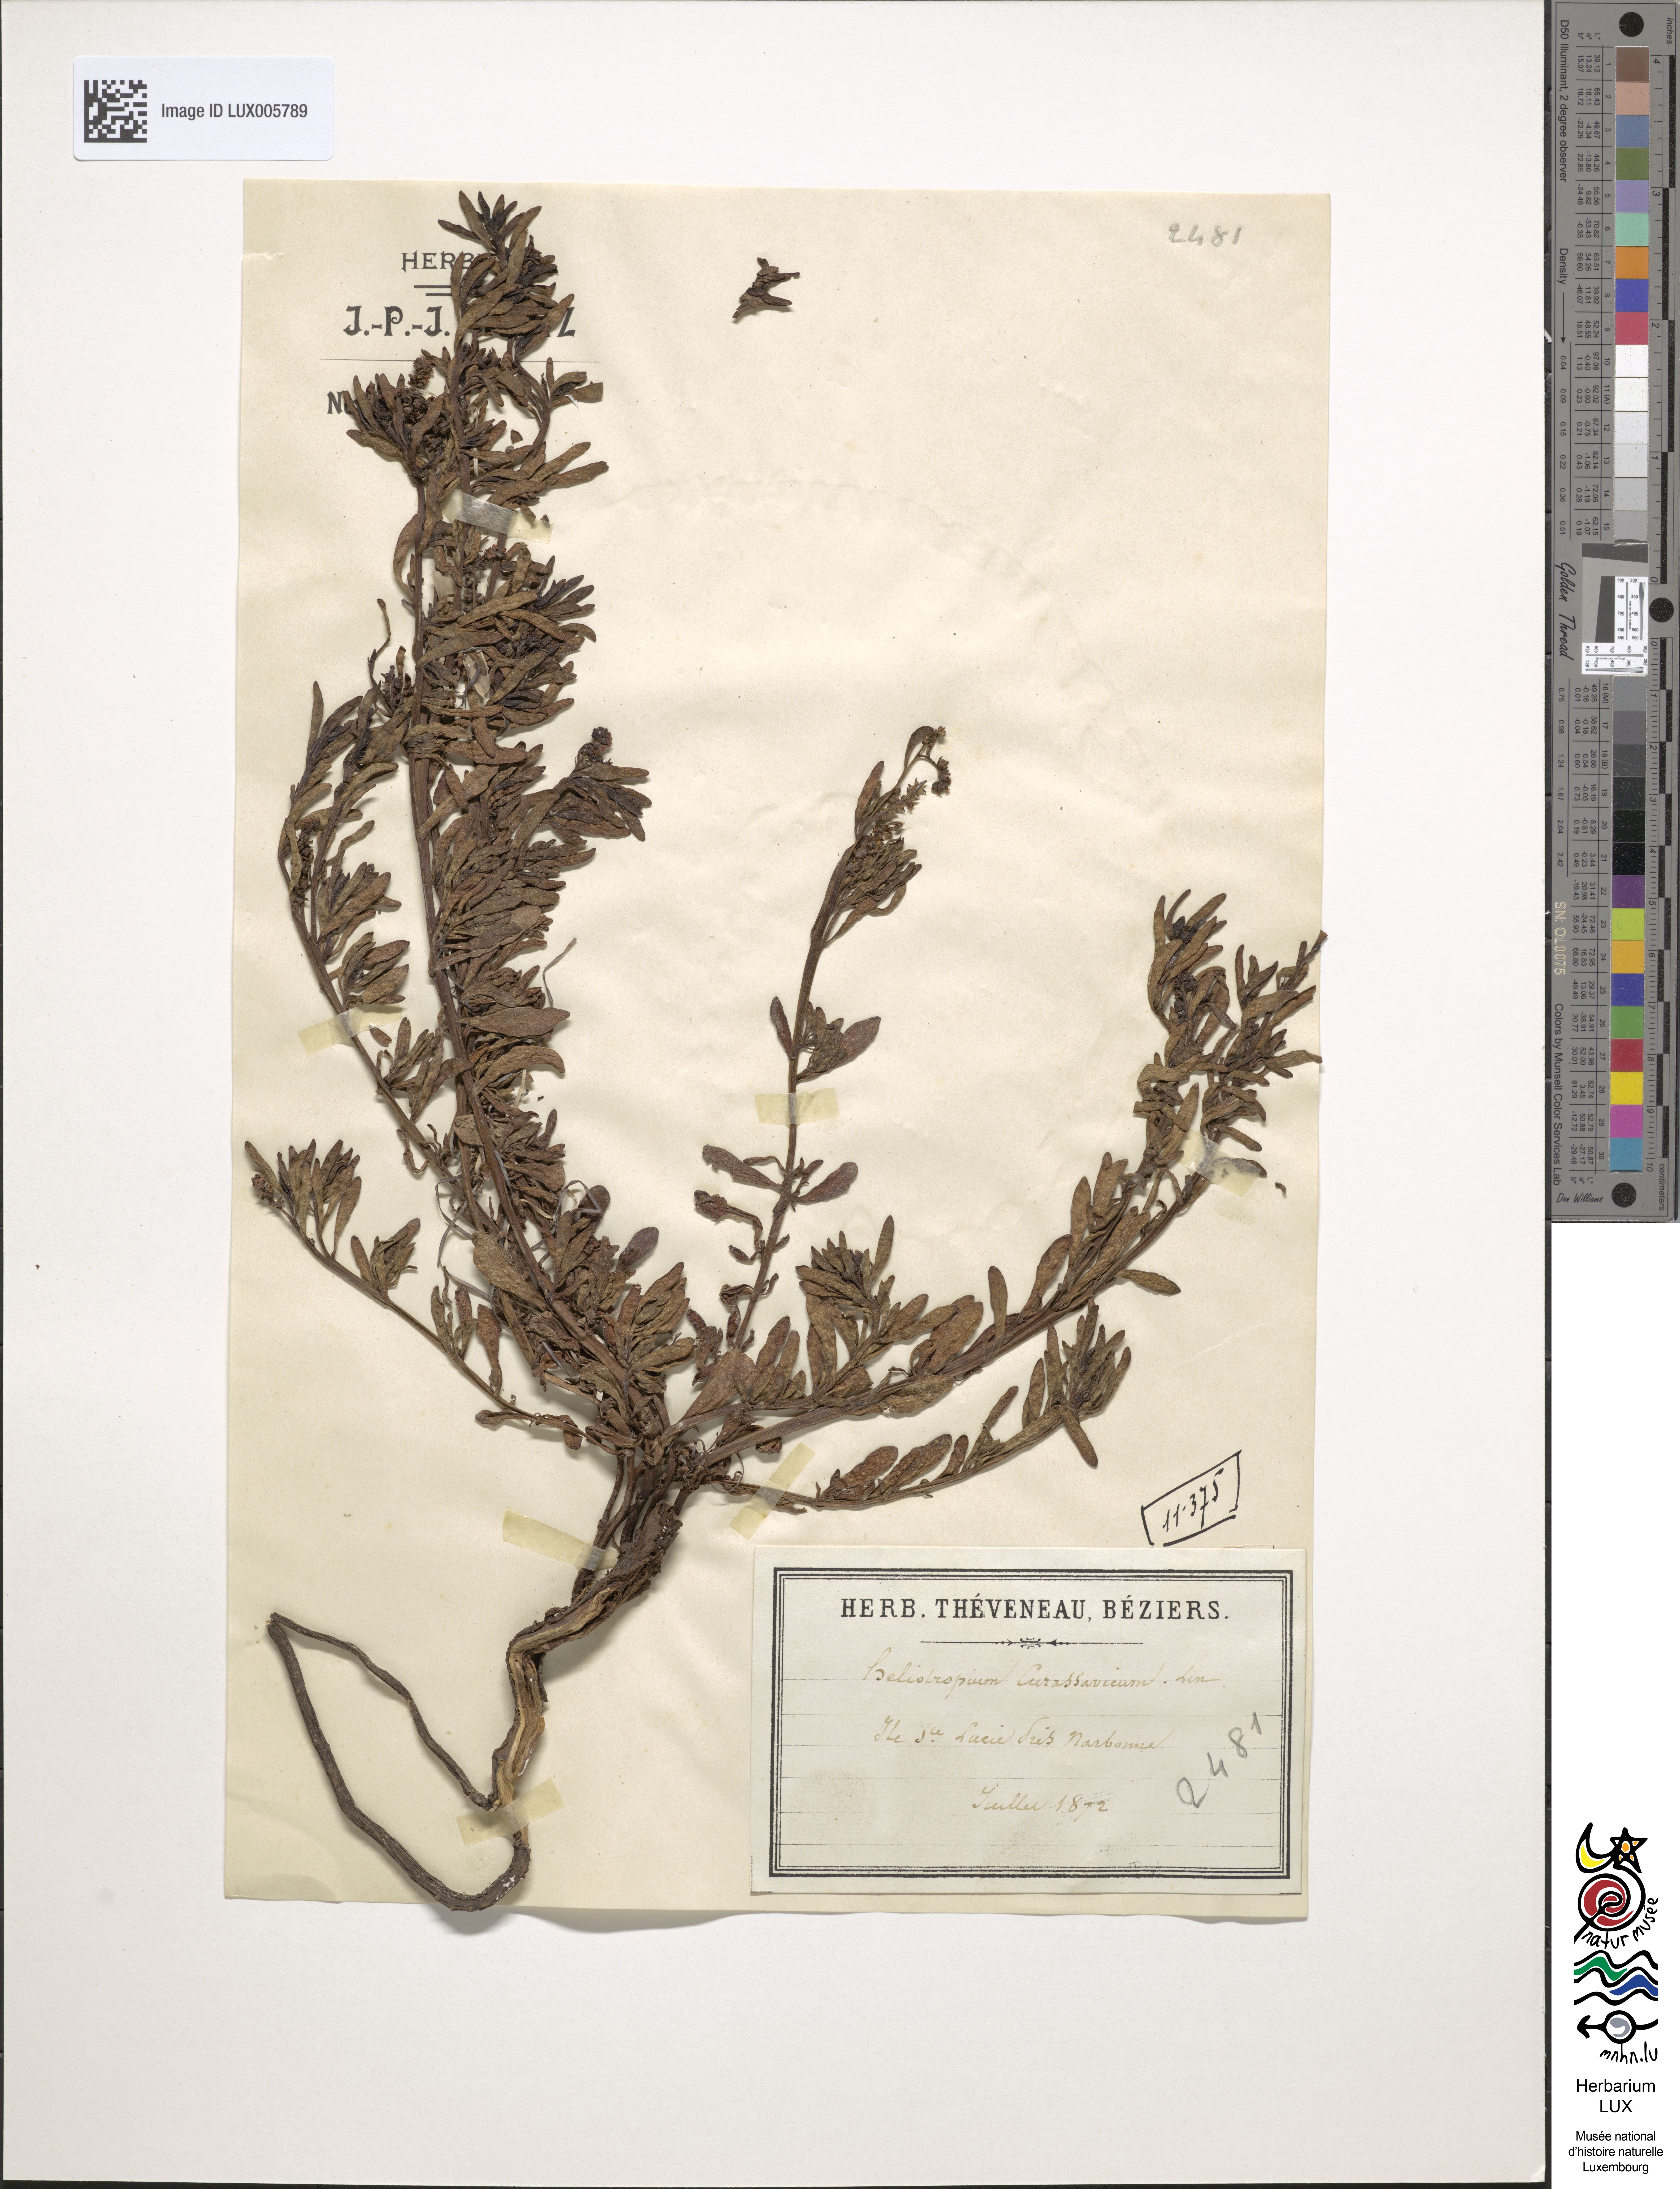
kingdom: Plantae
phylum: Tracheophyta
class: Magnoliopsida
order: Boraginales
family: Heliotropiaceae
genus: Heliotropium
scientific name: Heliotropium curassavicum
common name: Seaside heliotrope
